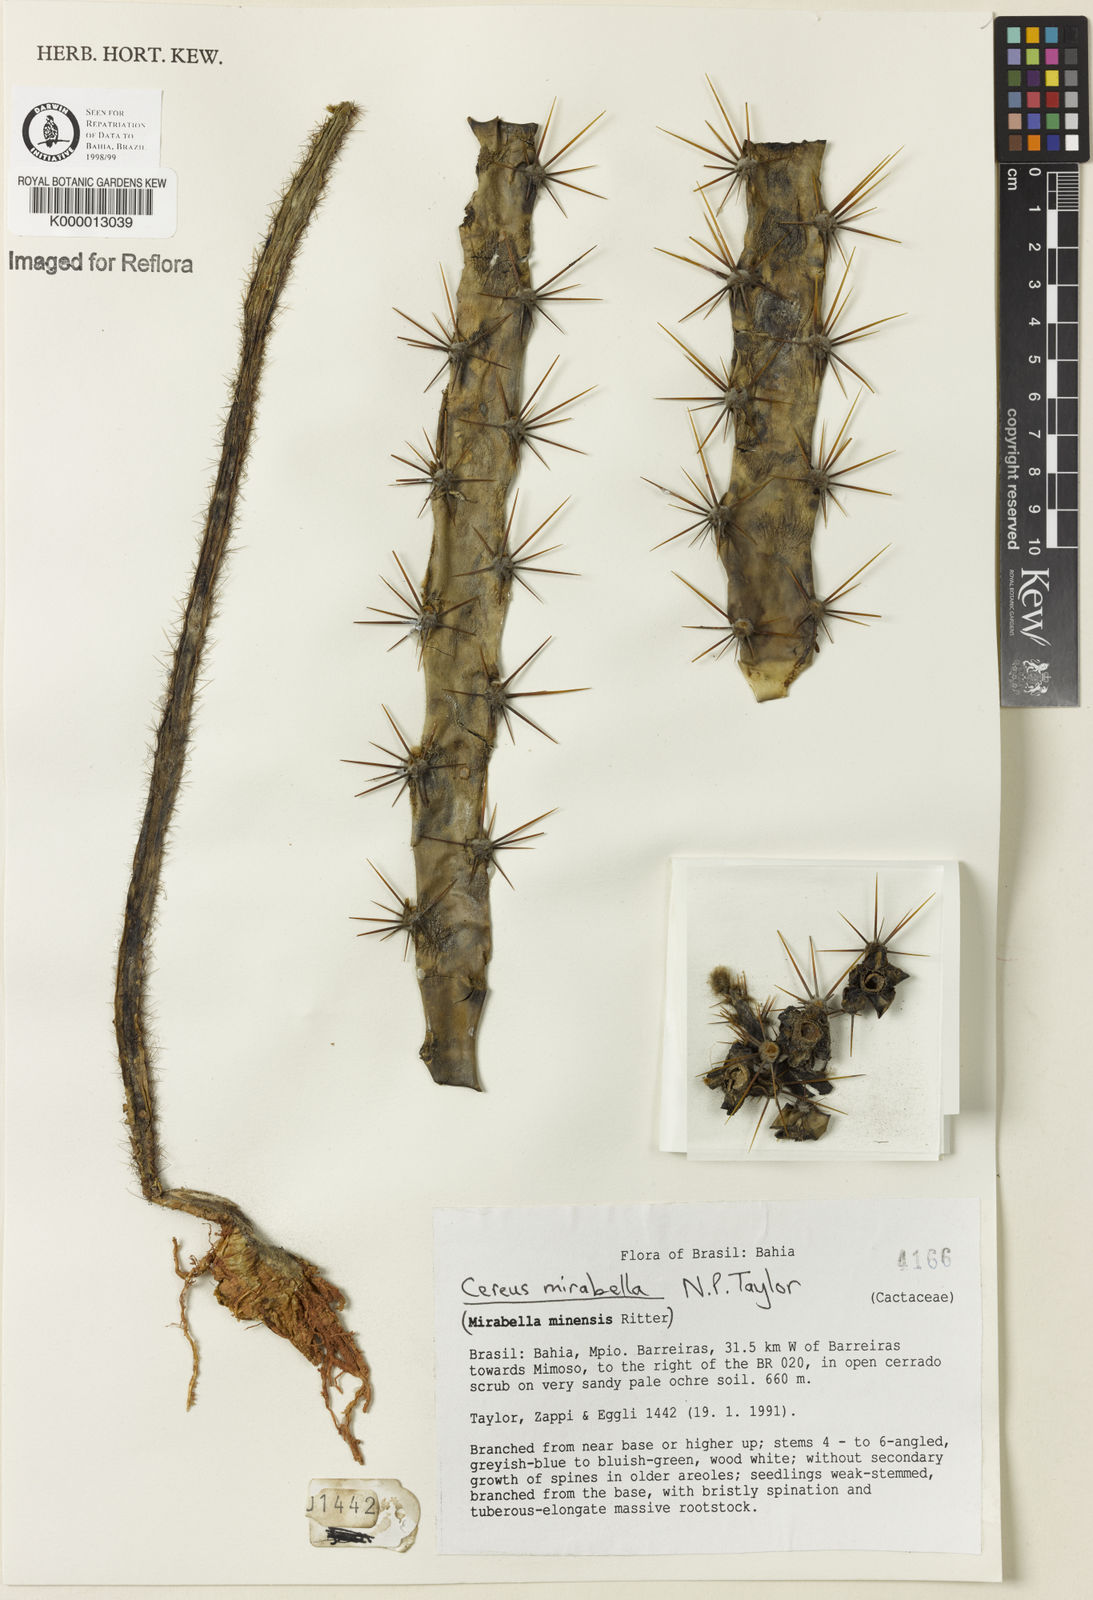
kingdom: Plantae
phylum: Tracheophyta
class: Magnoliopsida
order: Caryophyllales
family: Cactaceae
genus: Cereus
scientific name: Cereus mirabella
